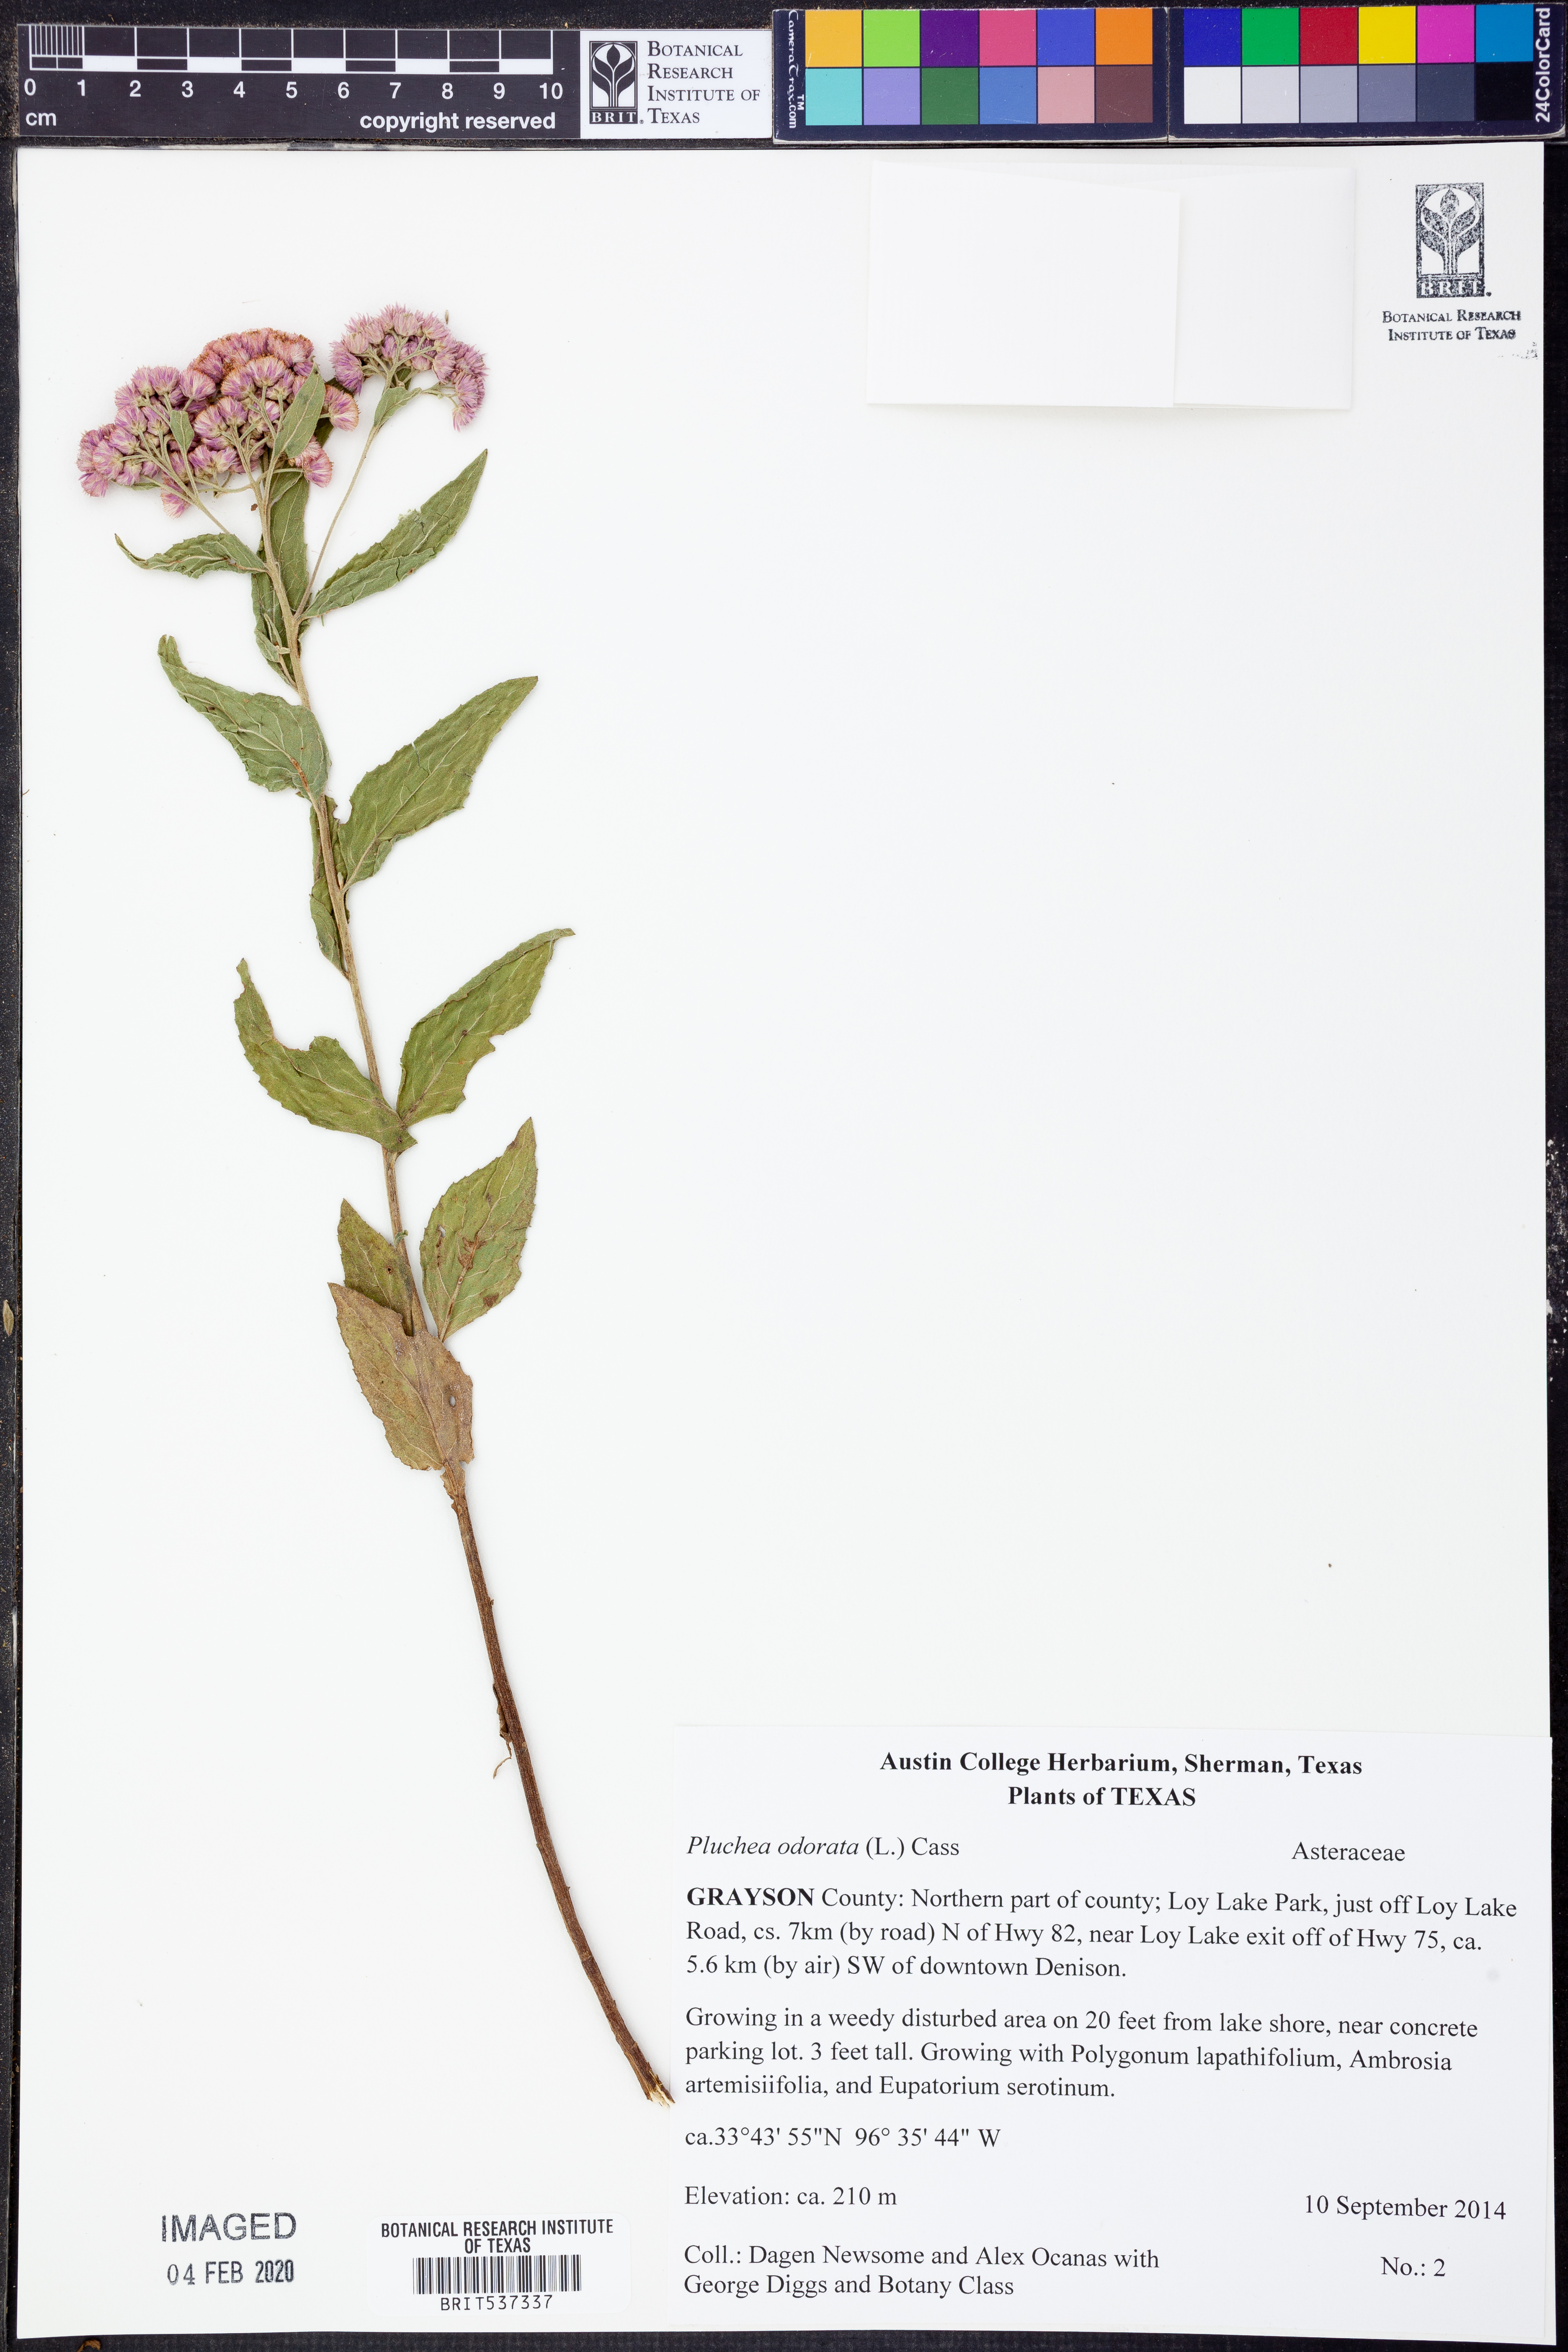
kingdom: Plantae
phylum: Tracheophyta
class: Magnoliopsida
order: Asterales
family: Asteraceae
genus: Pluchea
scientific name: Pluchea camphorata
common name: Camphor pluchea
